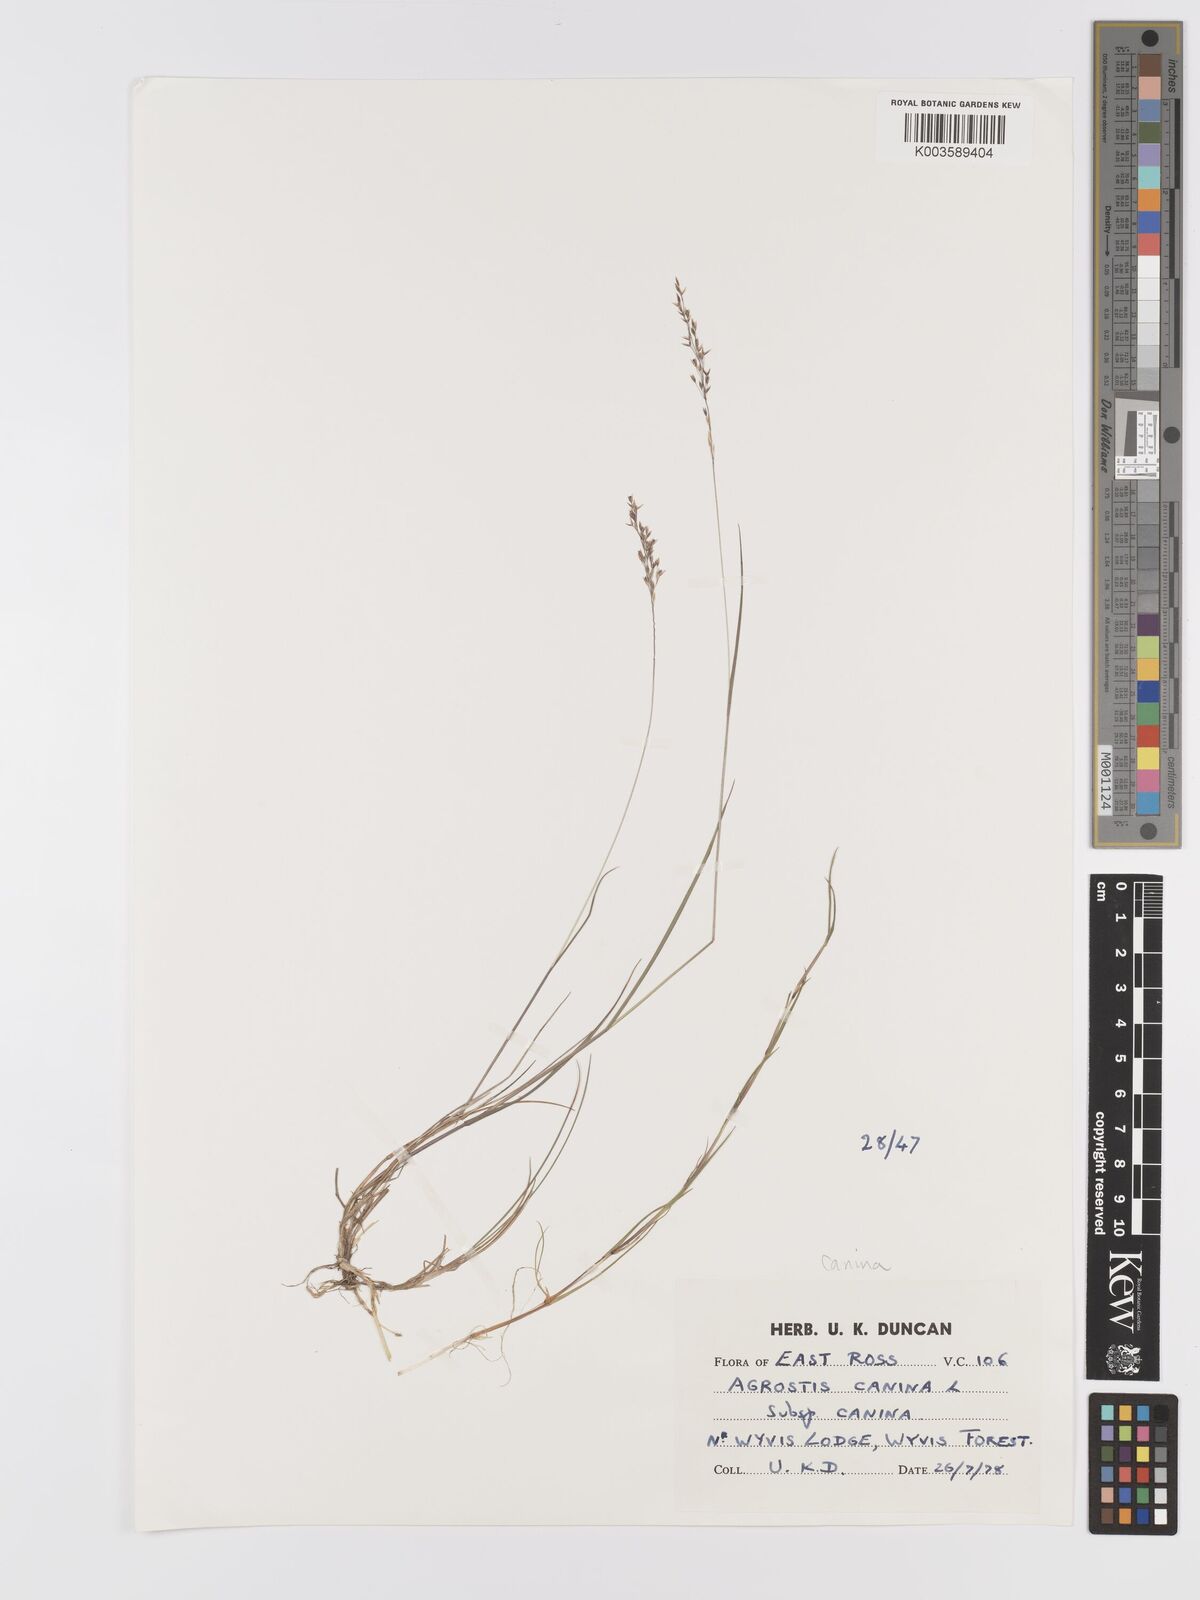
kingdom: Plantae
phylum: Tracheophyta
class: Liliopsida
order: Poales
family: Poaceae
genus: Agrostis
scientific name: Agrostis canina
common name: Velvet bent
